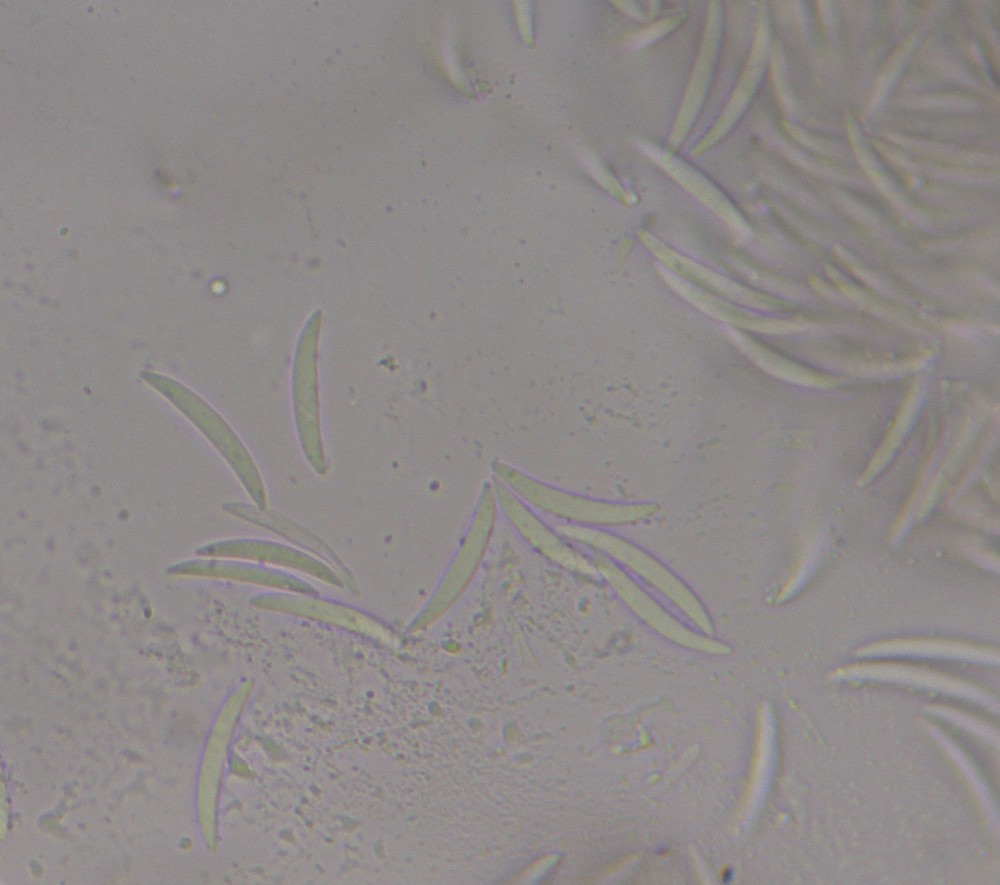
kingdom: Fungi
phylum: Ascomycota
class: Leotiomycetes
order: Chaetomellales
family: Chaetomellaceae
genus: Pilidium
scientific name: Pilidium acerinum
